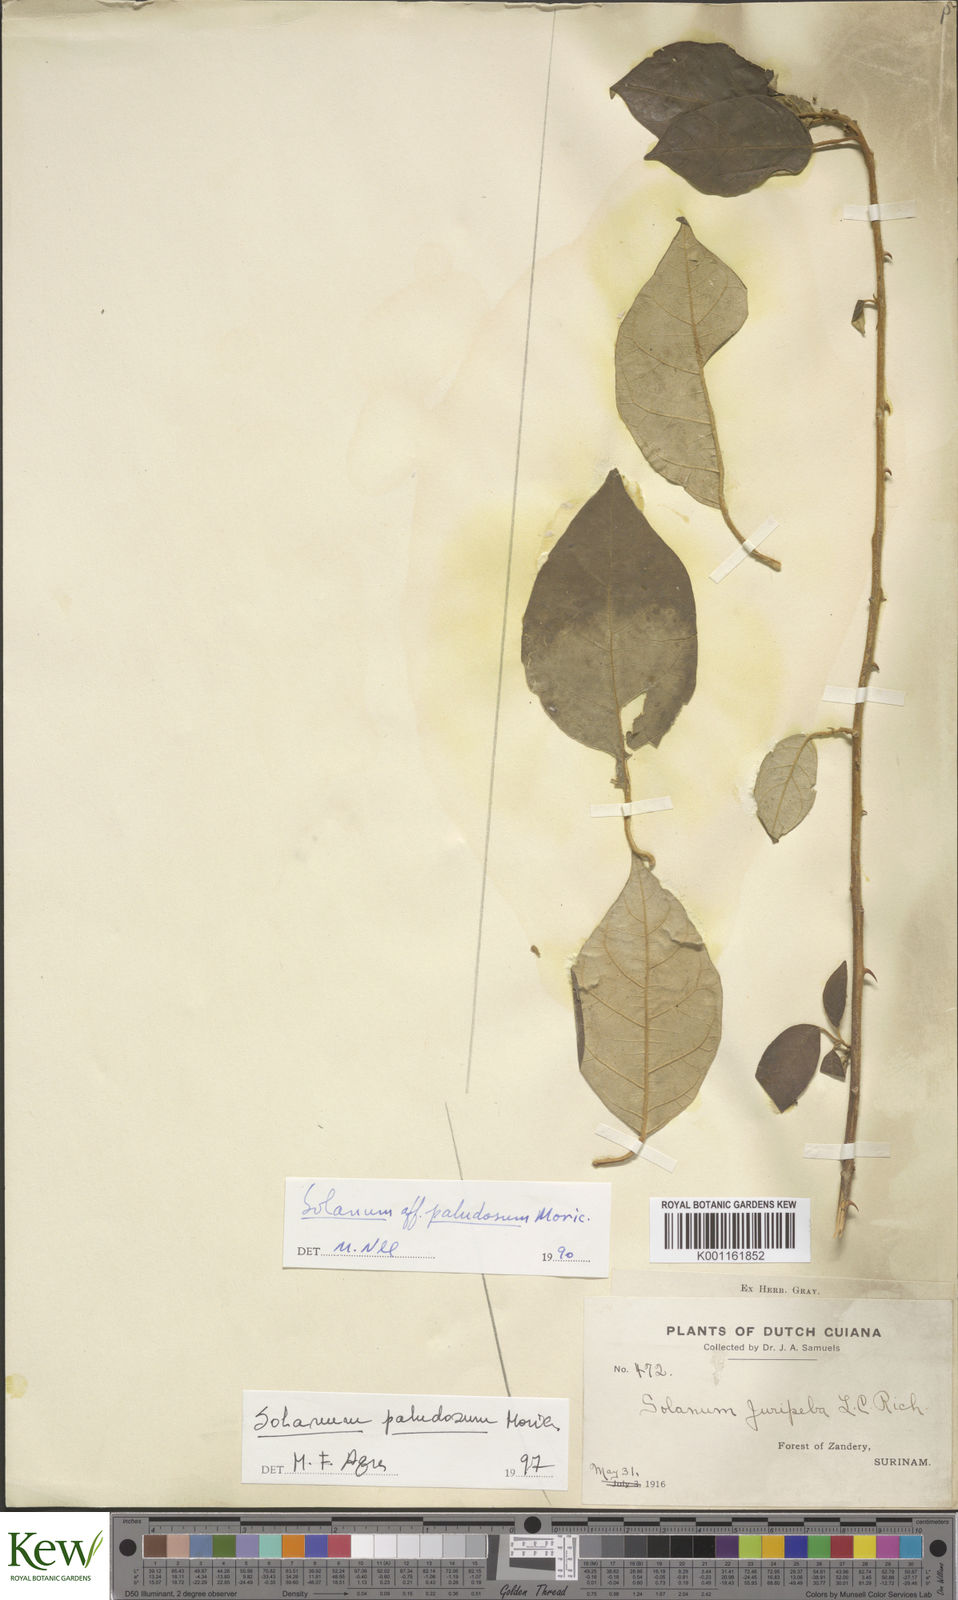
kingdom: Plantae
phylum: Tracheophyta
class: Magnoliopsida
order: Solanales
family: Solanaceae
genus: Solanum
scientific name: Solanum paludosum
